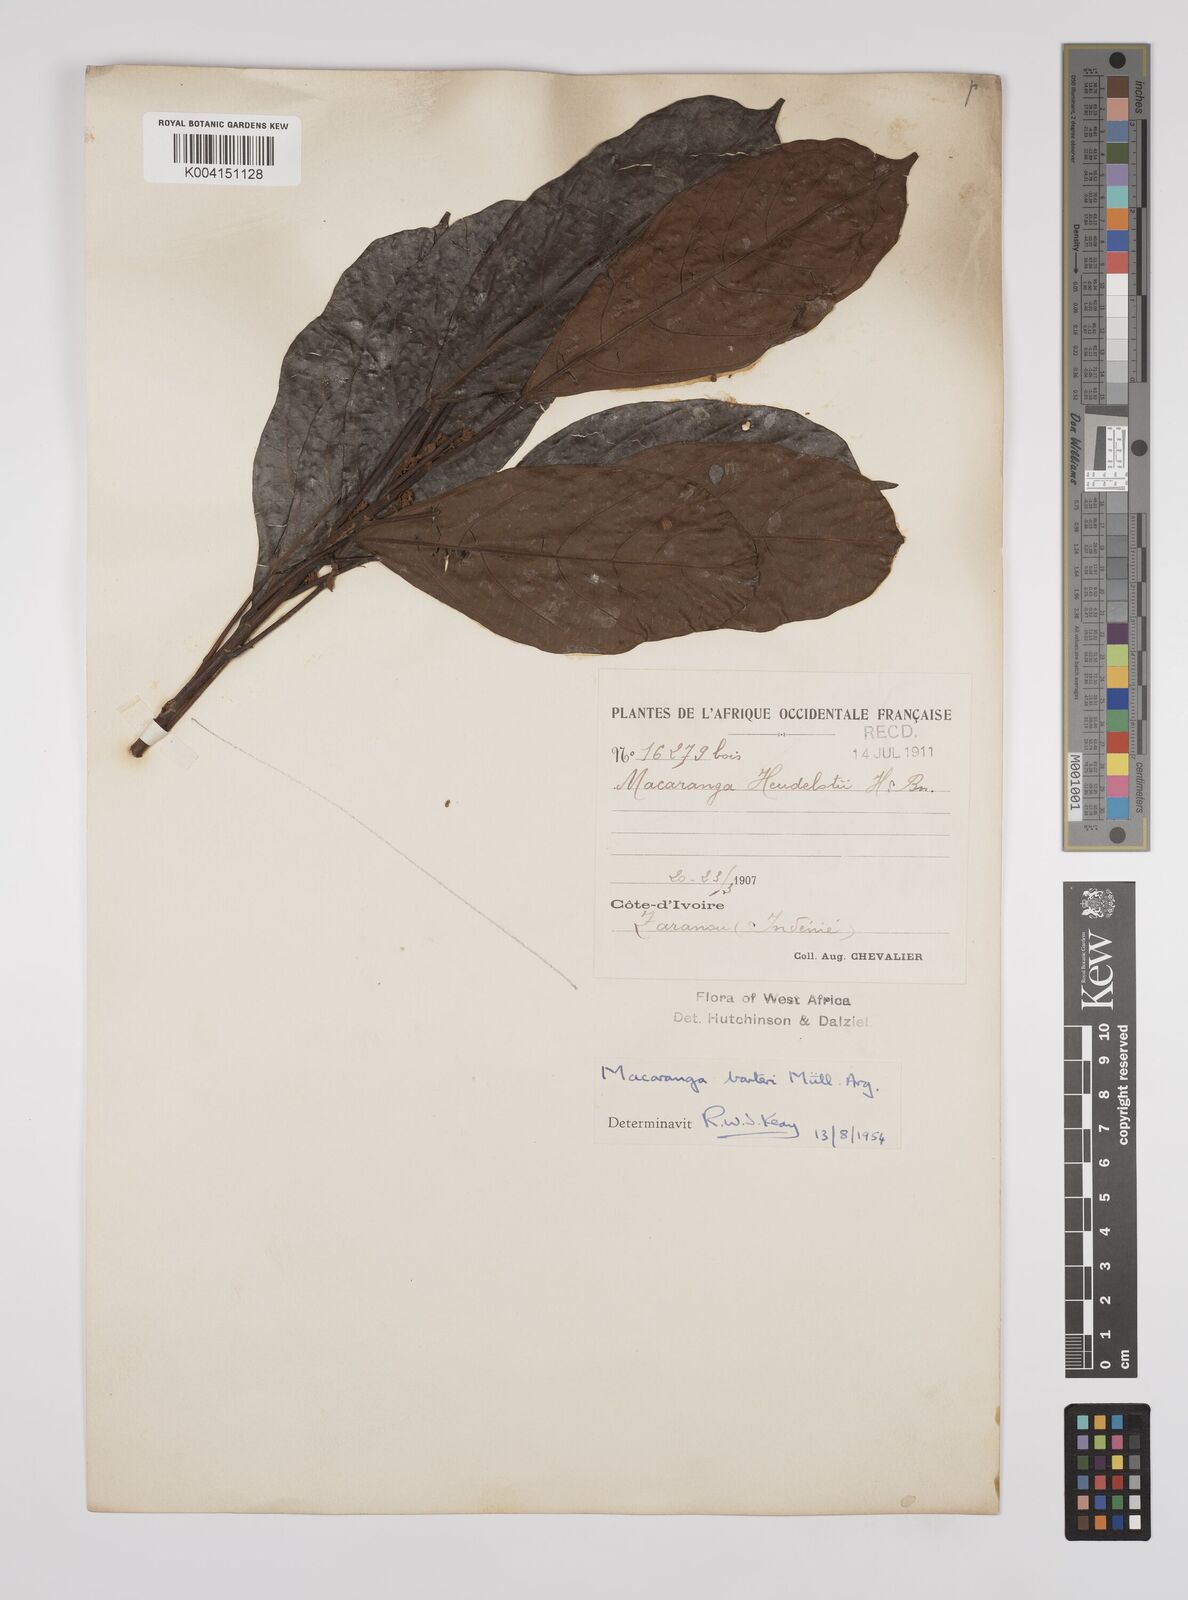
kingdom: Plantae
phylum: Tracheophyta
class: Magnoliopsida
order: Malpighiales
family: Euphorbiaceae
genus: Macaranga
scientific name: Macaranga barteri
